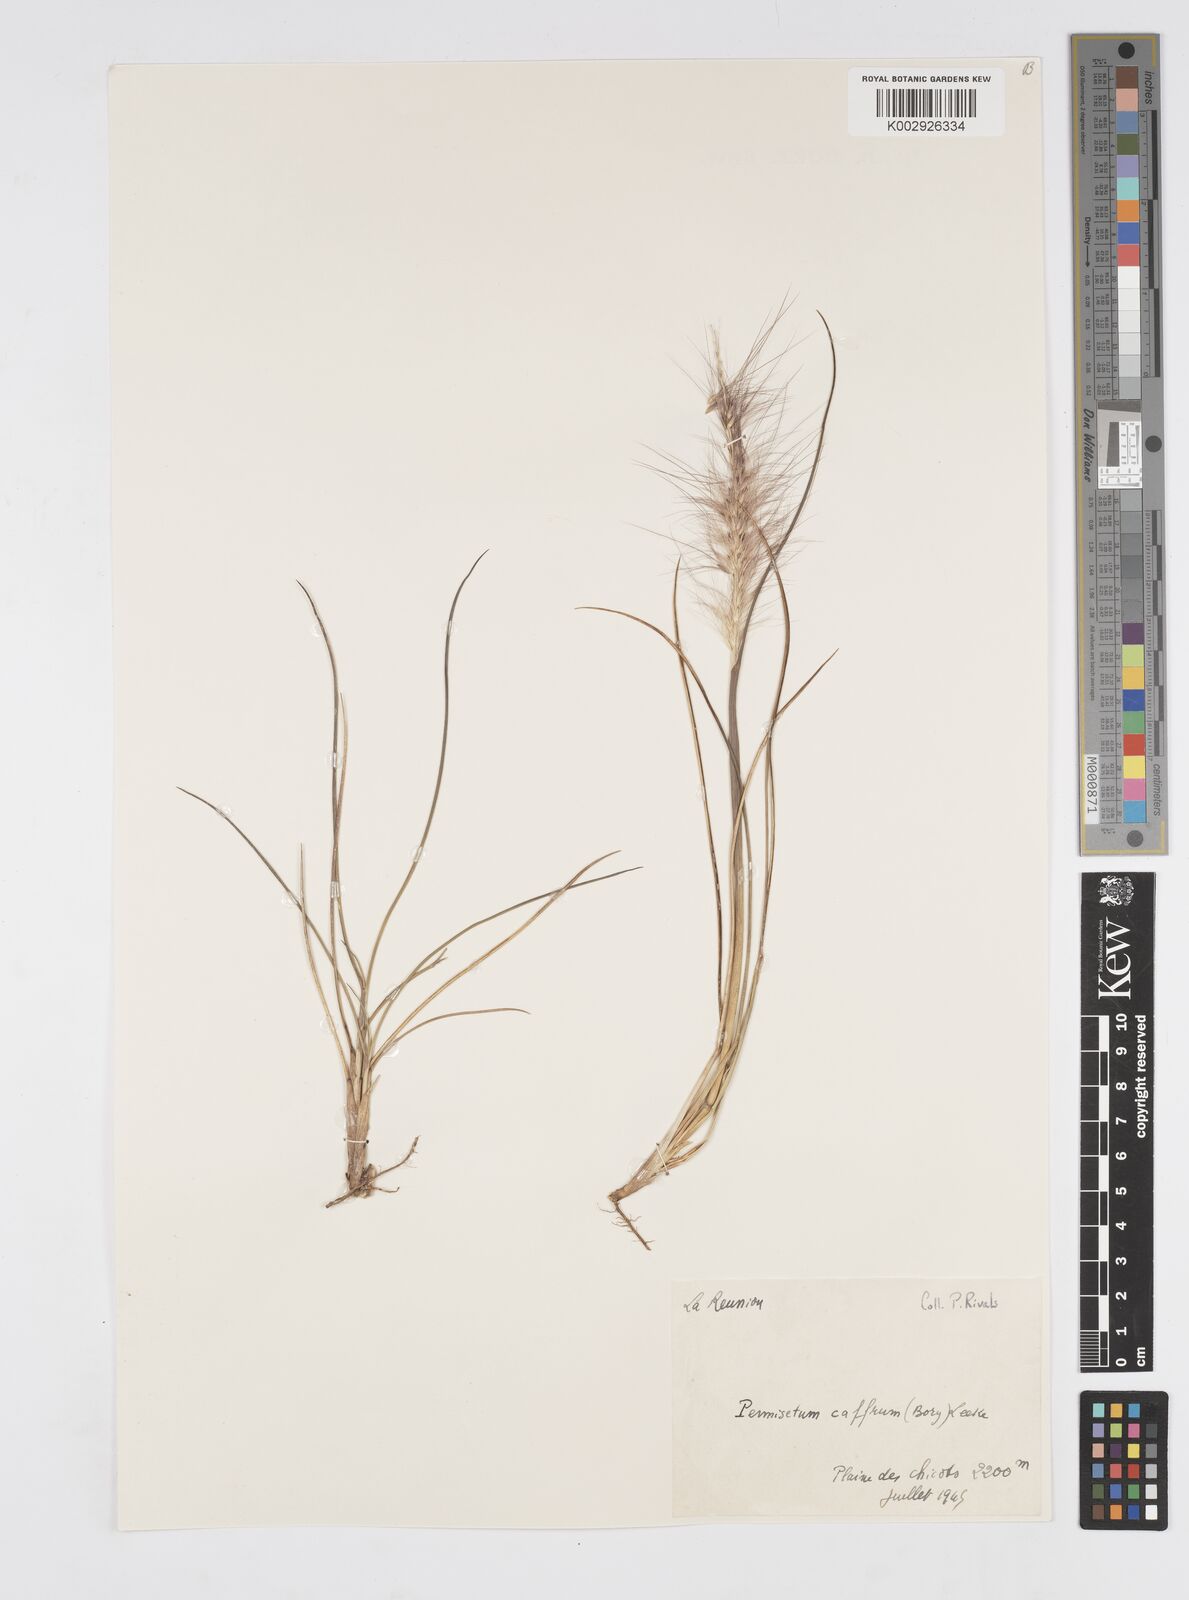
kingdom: Plantae
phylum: Tracheophyta
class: Liliopsida
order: Poales
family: Poaceae
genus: Cenchrus
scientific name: Cenchrus cafer
